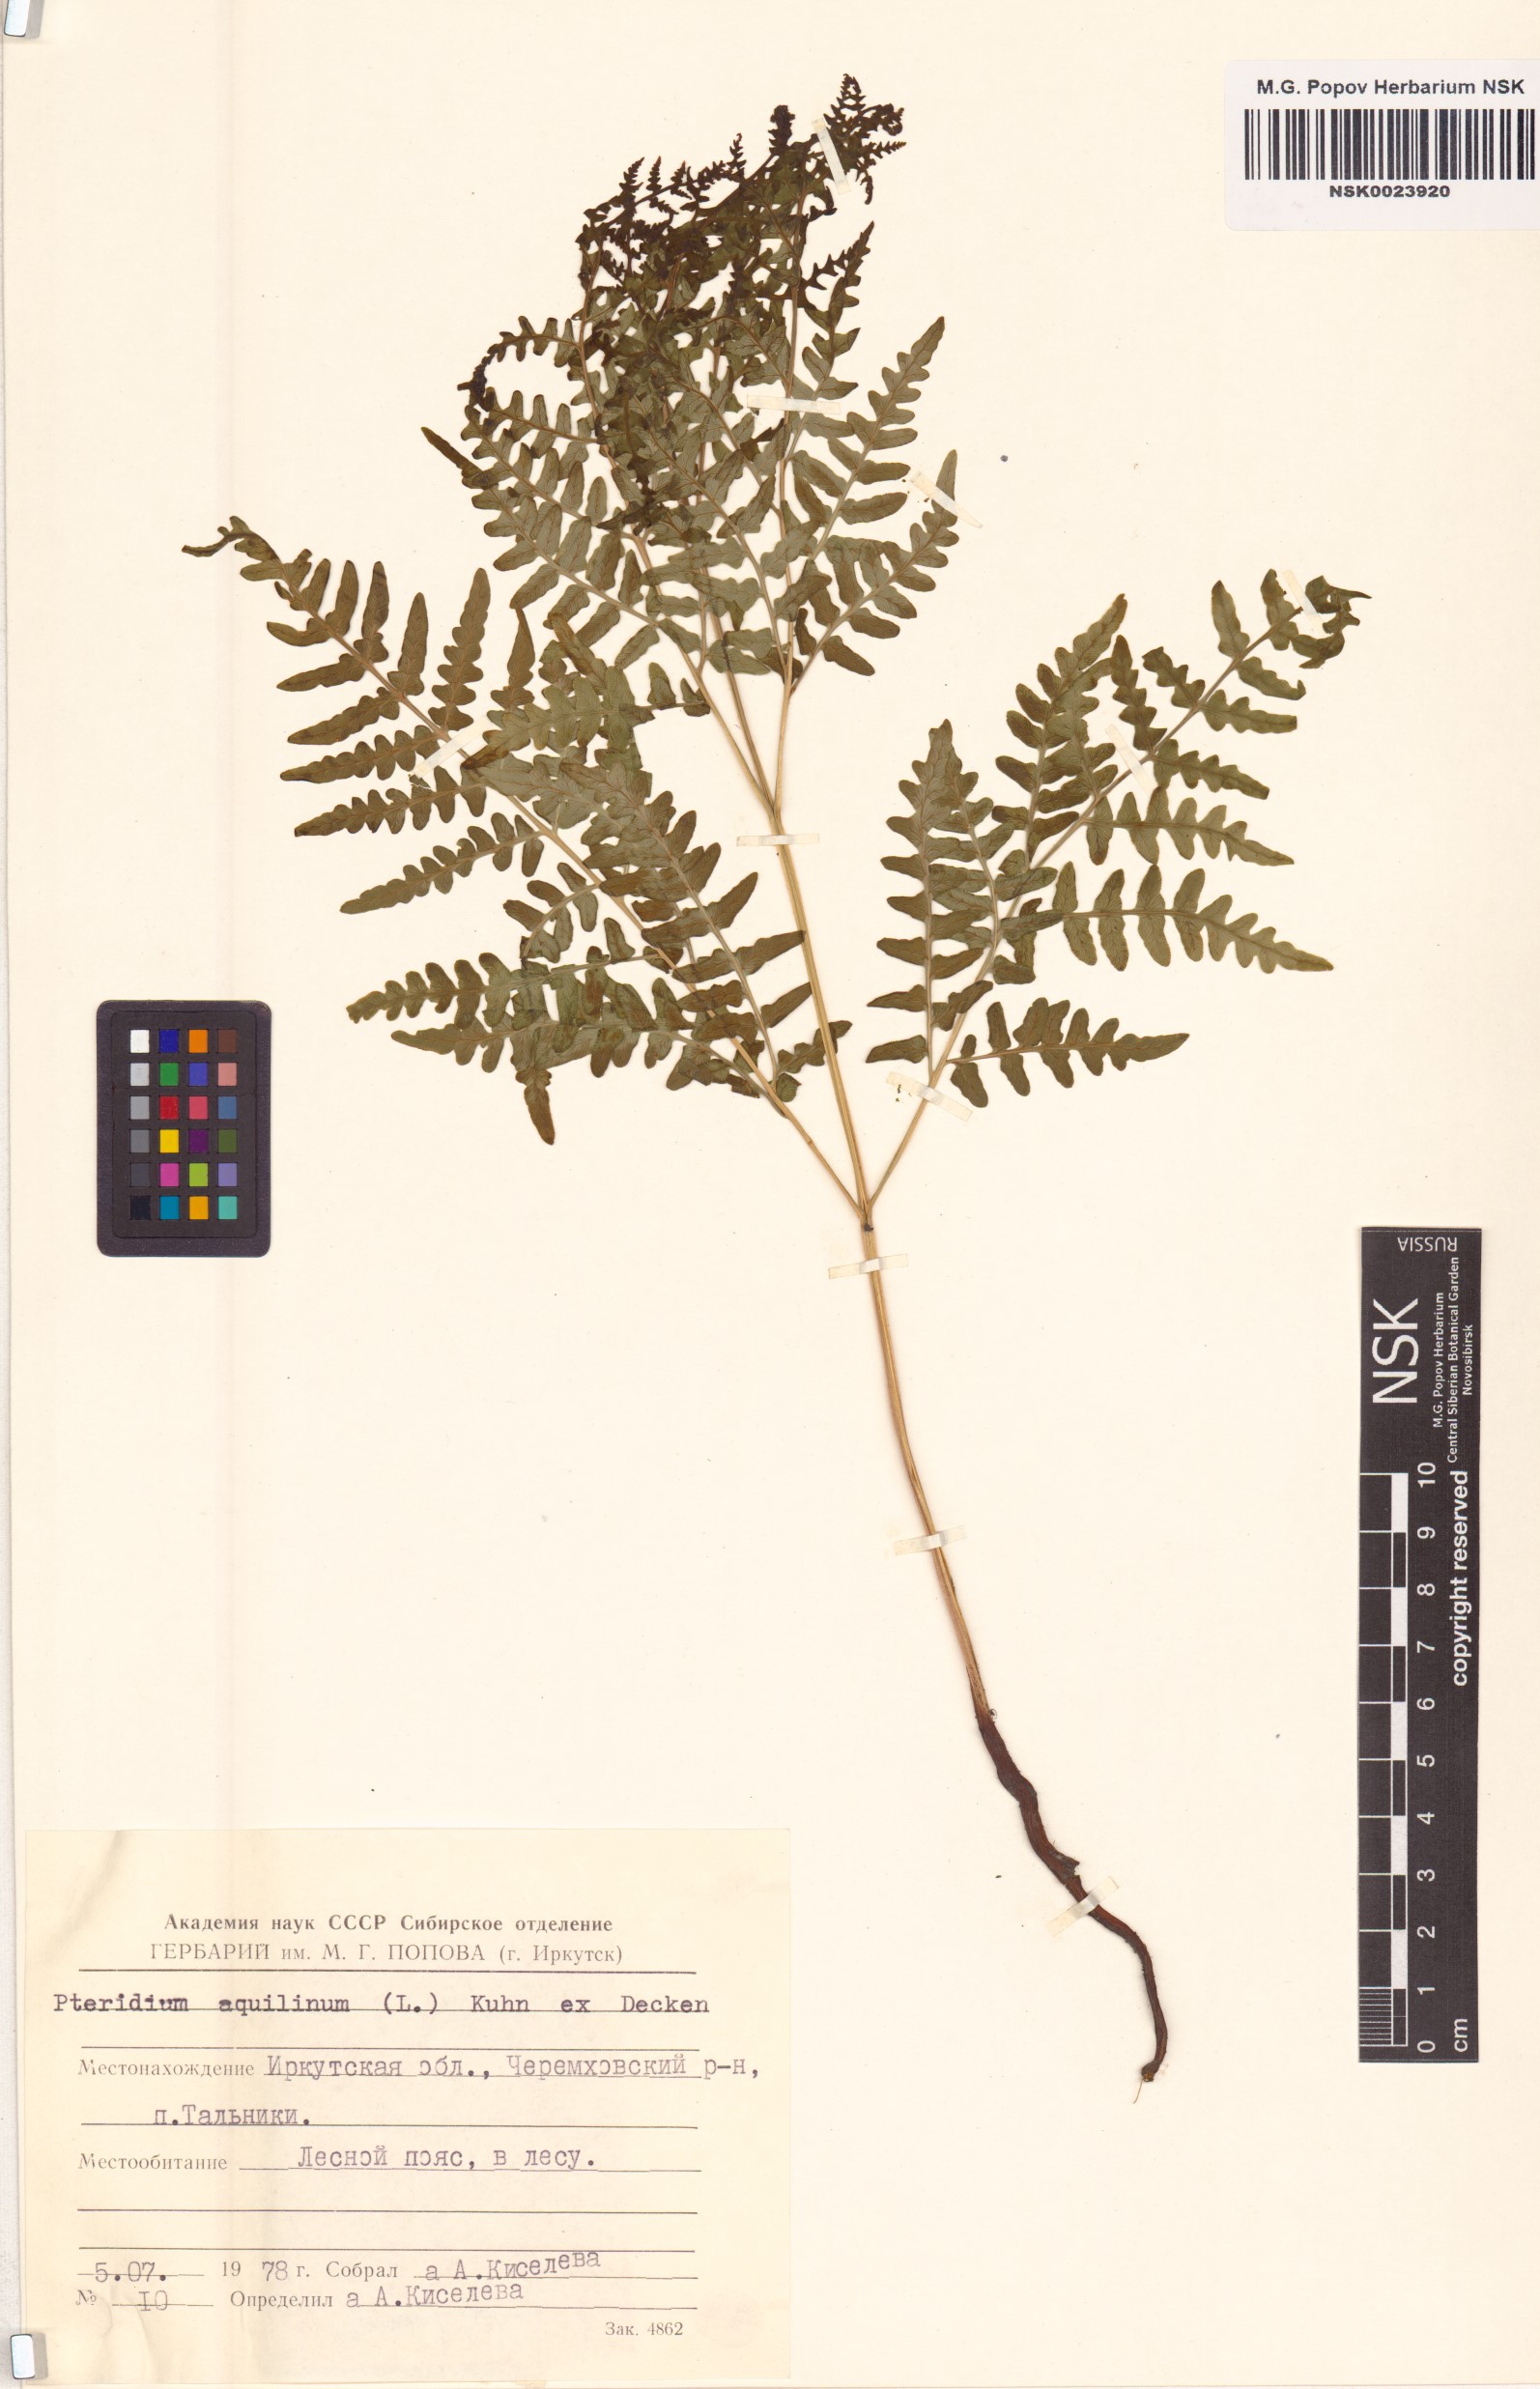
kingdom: Plantae
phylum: Tracheophyta
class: Polypodiopsida
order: Polypodiales
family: Dennstaedtiaceae
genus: Pteridium
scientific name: Pteridium aquilinum
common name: Bracken
